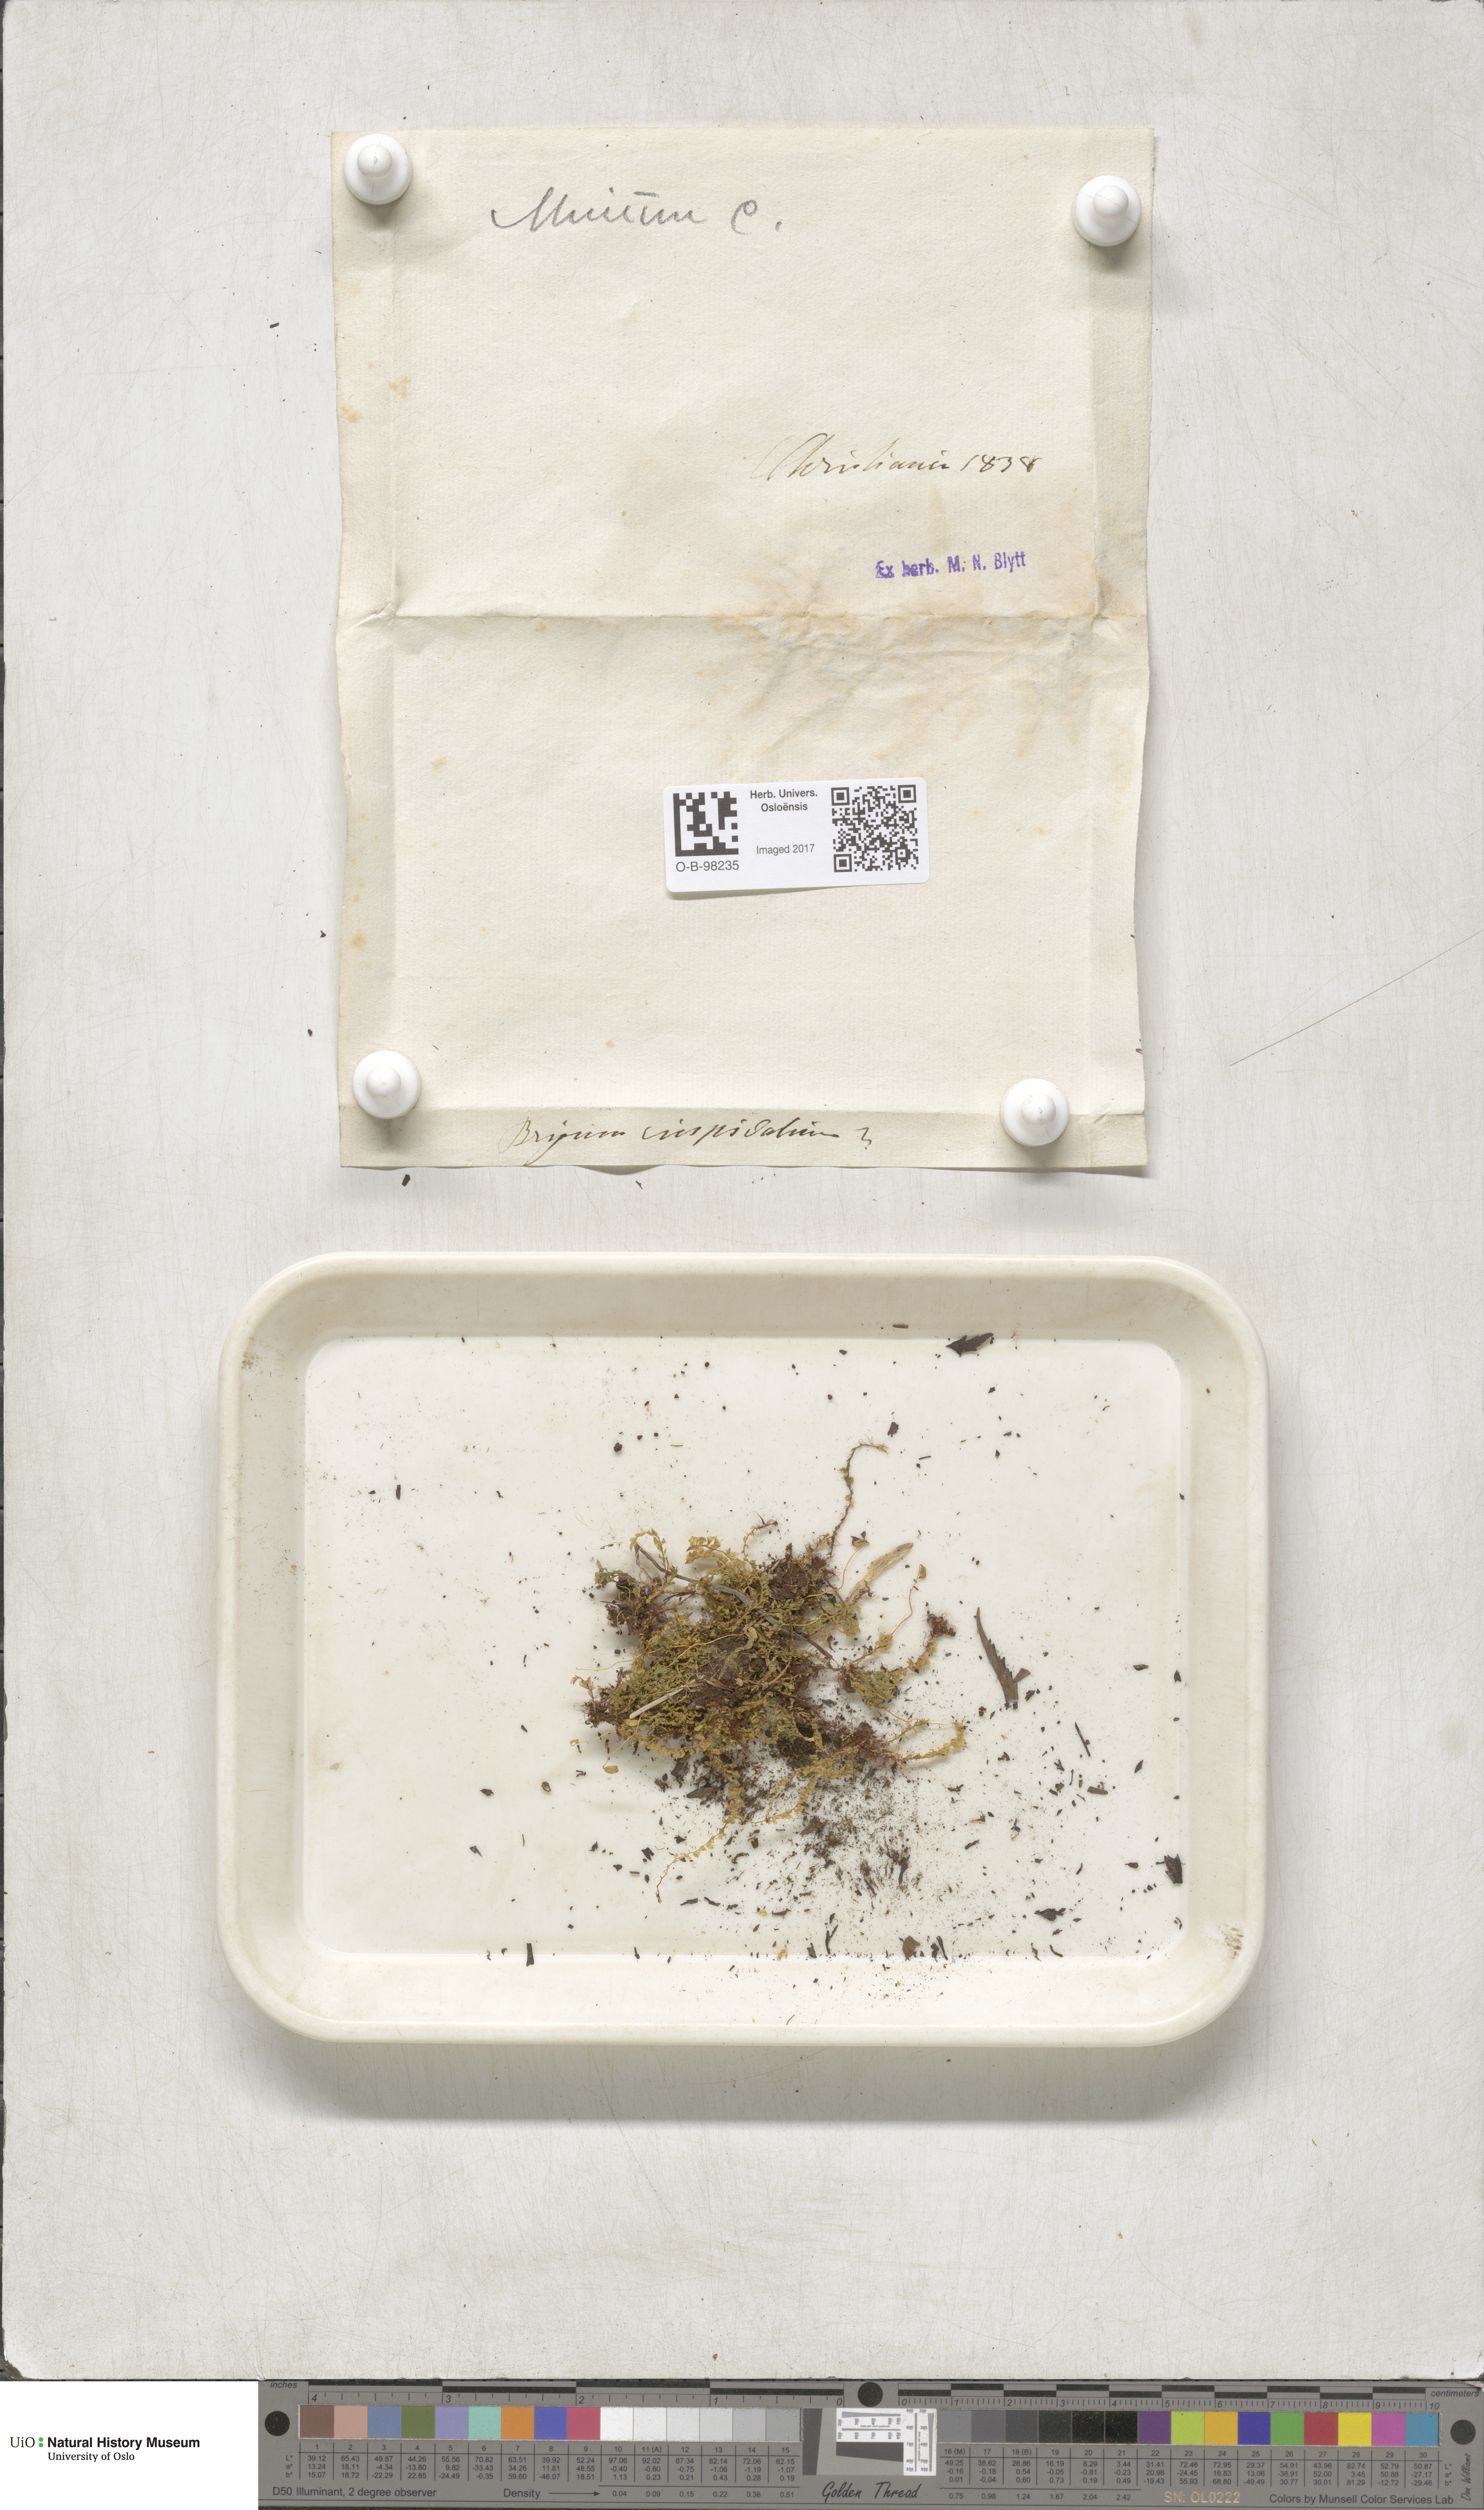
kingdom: Plantae
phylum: Bryophyta
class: Bryopsida
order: Bryales
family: Mniaceae
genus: Plagiomnium
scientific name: Plagiomnium cuspidatum
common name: Woodsy leafy moss
